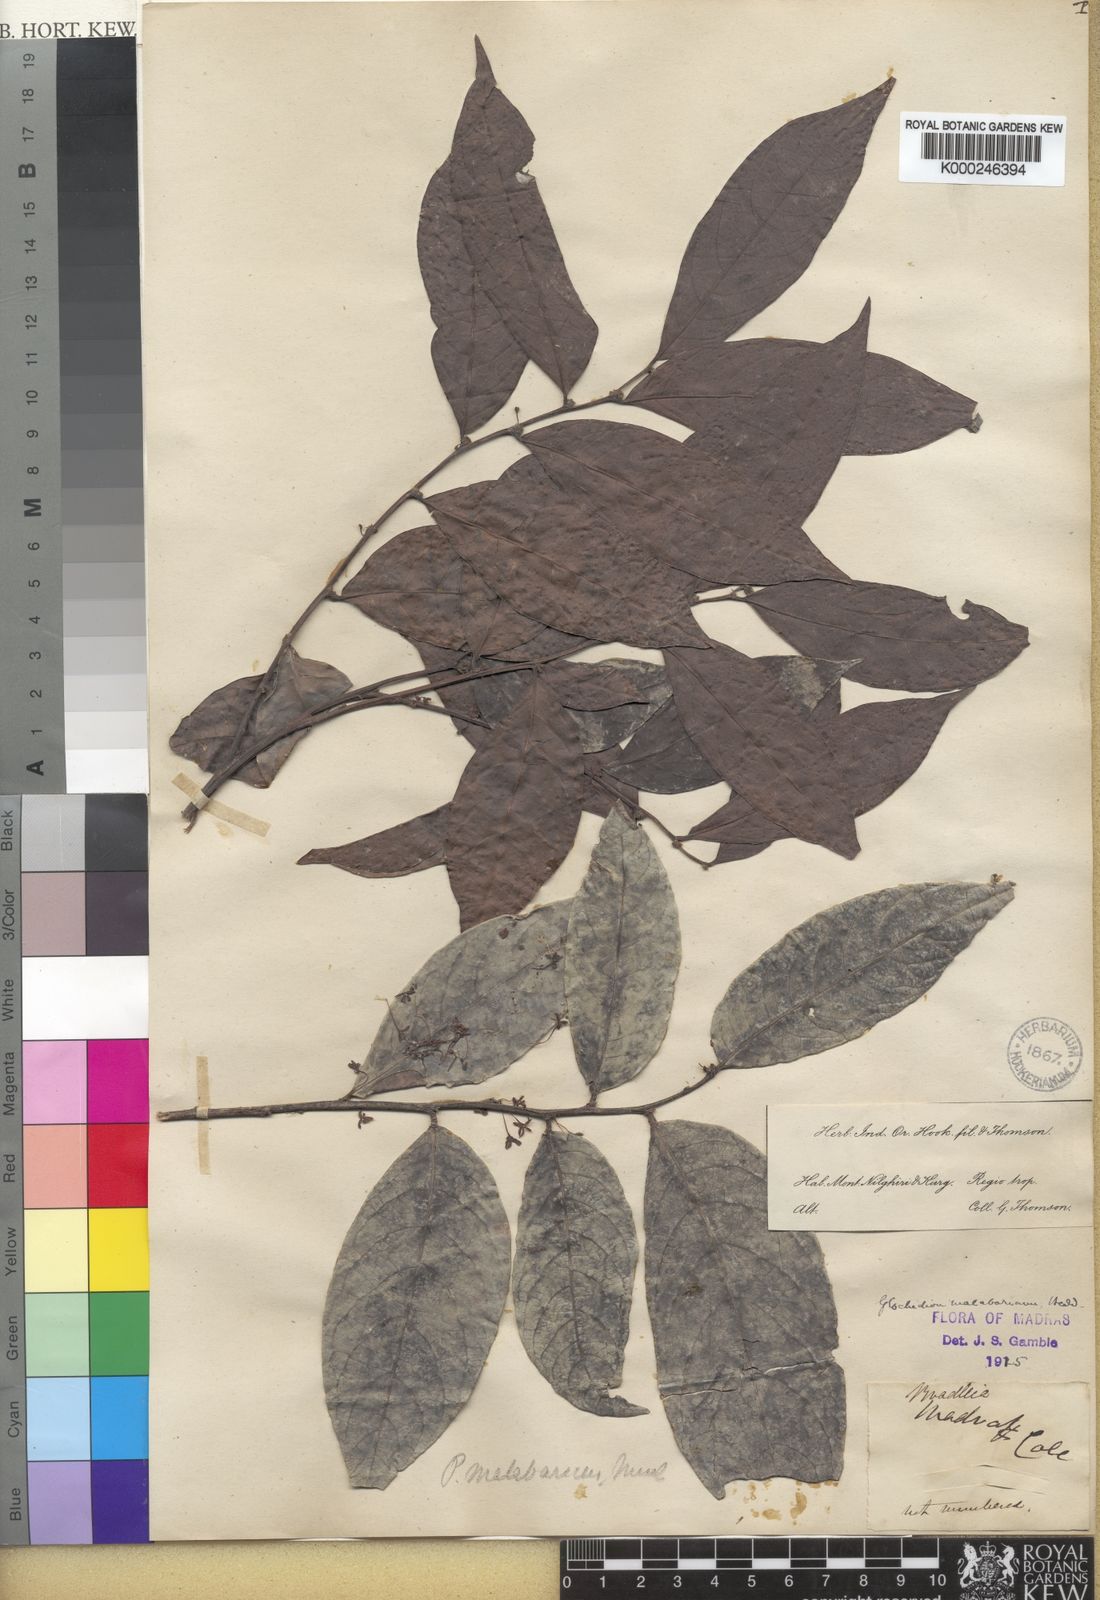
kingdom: Plantae
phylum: Tracheophyta
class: Magnoliopsida
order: Malpighiales
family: Phyllanthaceae
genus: Glochidion
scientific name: Glochidion
